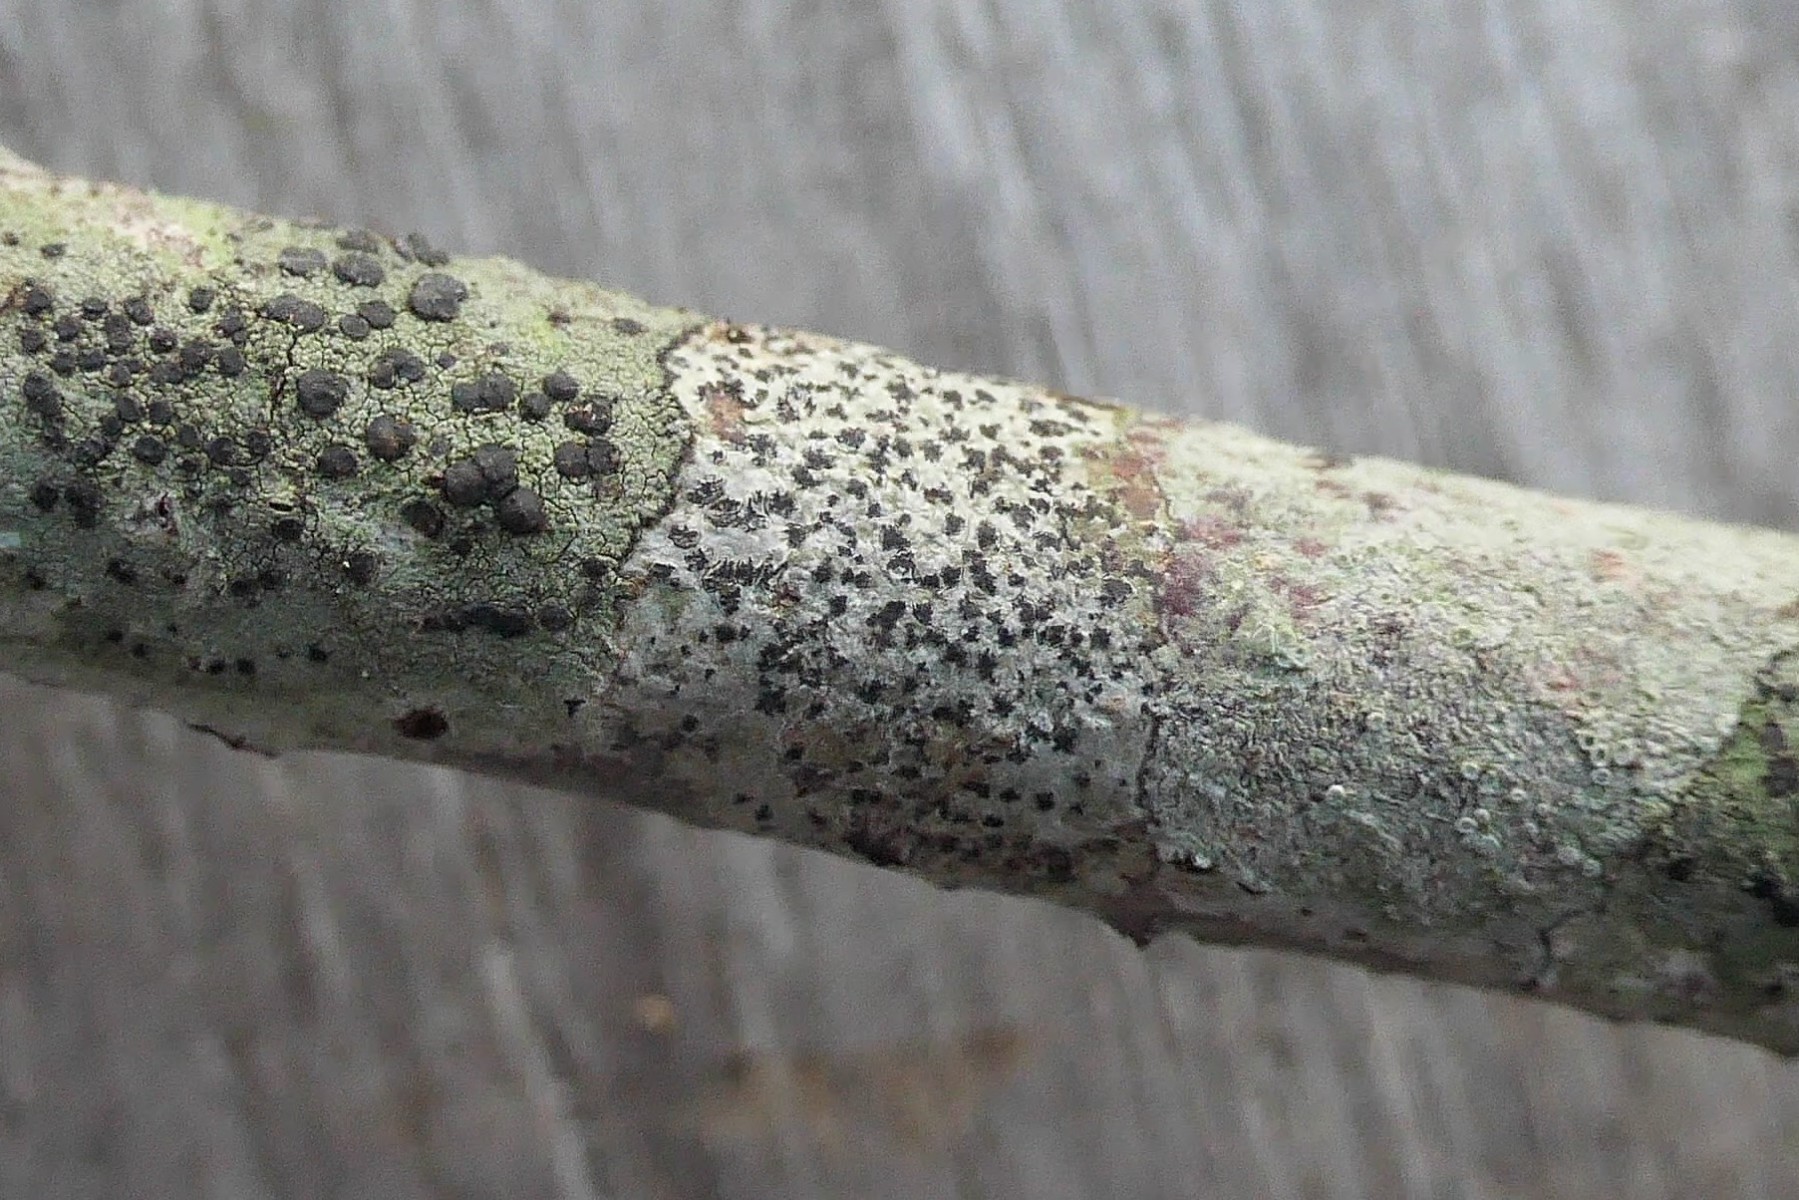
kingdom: Fungi
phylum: Ascomycota
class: Arthoniomycetes
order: Arthoniales
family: Arthoniaceae
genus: Arthonia
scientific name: Arthonia radiata
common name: stjerne-pletlav
